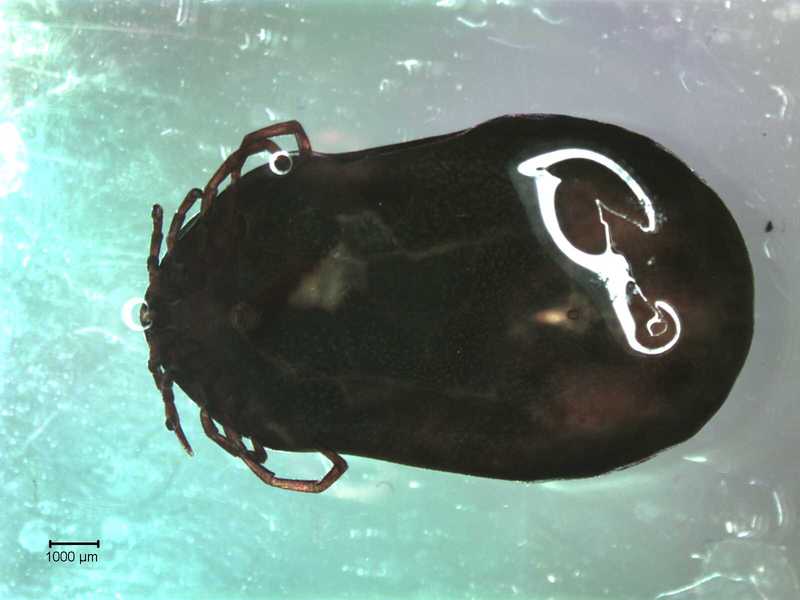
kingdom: Animalia
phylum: Arthropoda
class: Arachnida
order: Ixodida
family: Ixodidae
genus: Ixodes
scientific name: Ixodes
